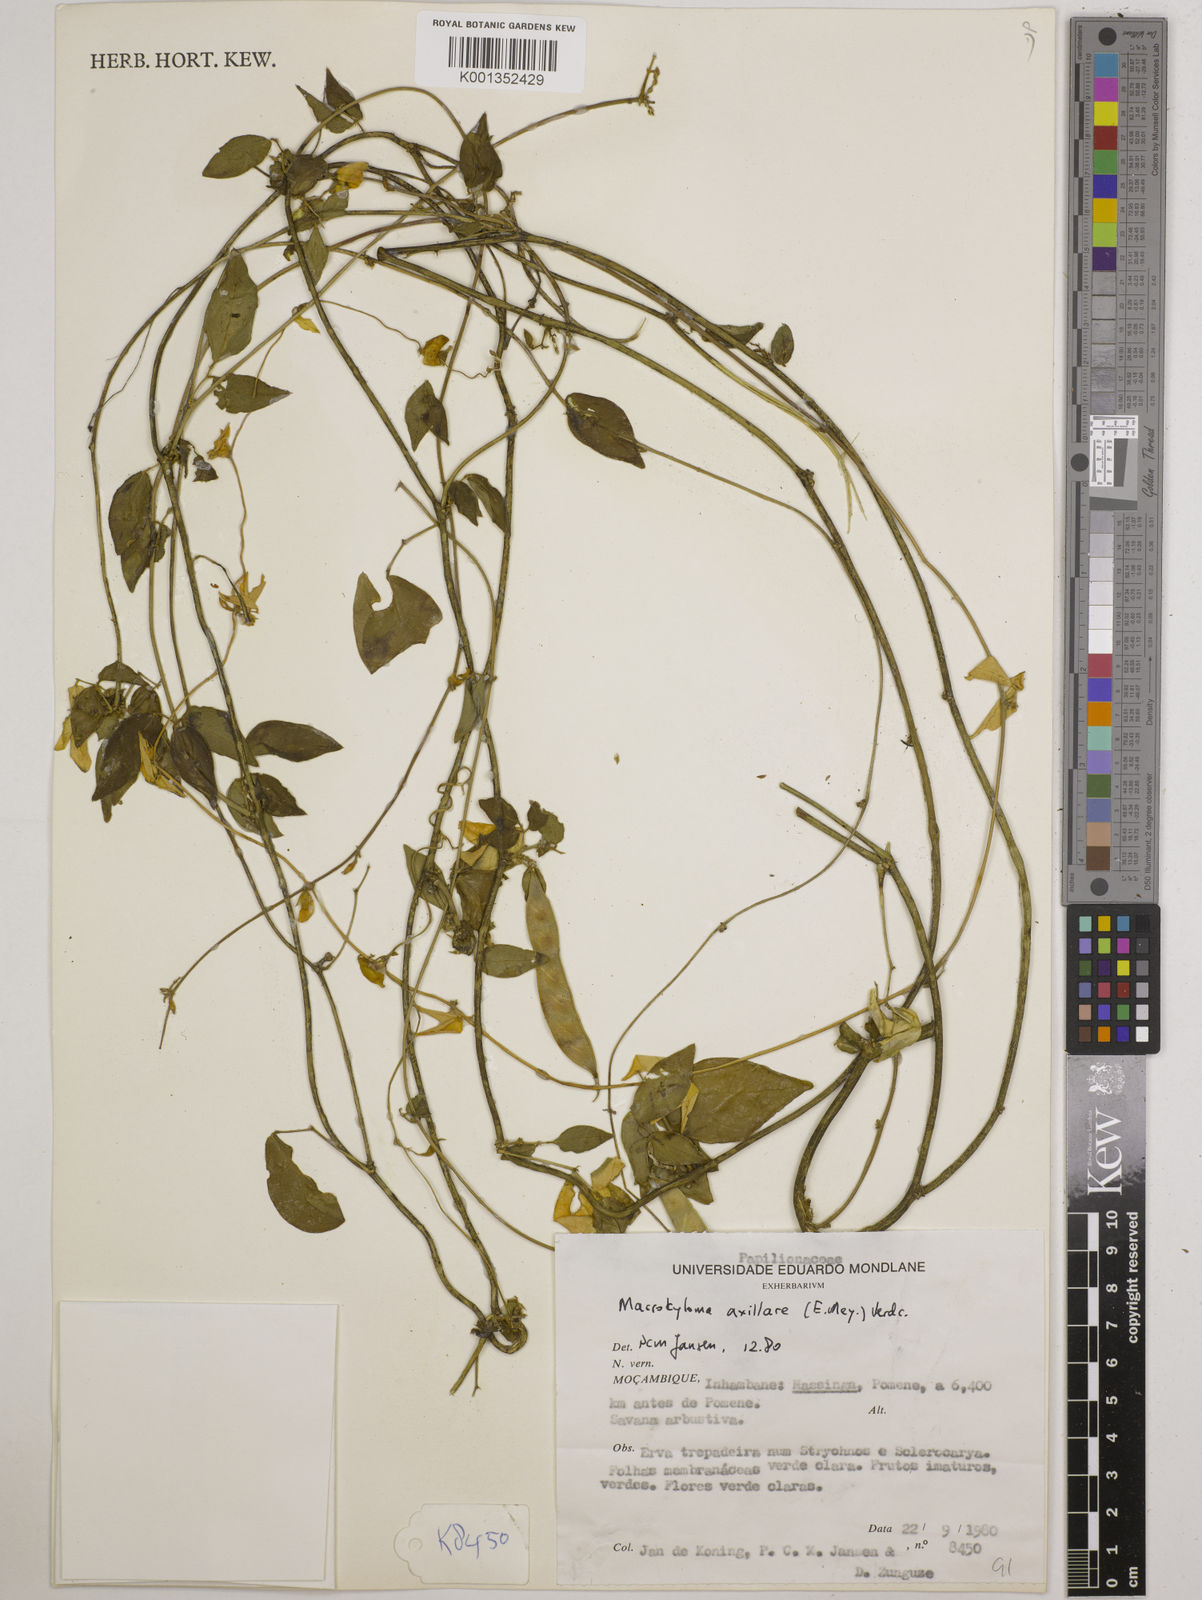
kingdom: Plantae
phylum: Tracheophyta
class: Magnoliopsida
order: Fabales
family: Fabaceae
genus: Macrotyloma
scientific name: Macrotyloma axillare
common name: Perennial horsegram
